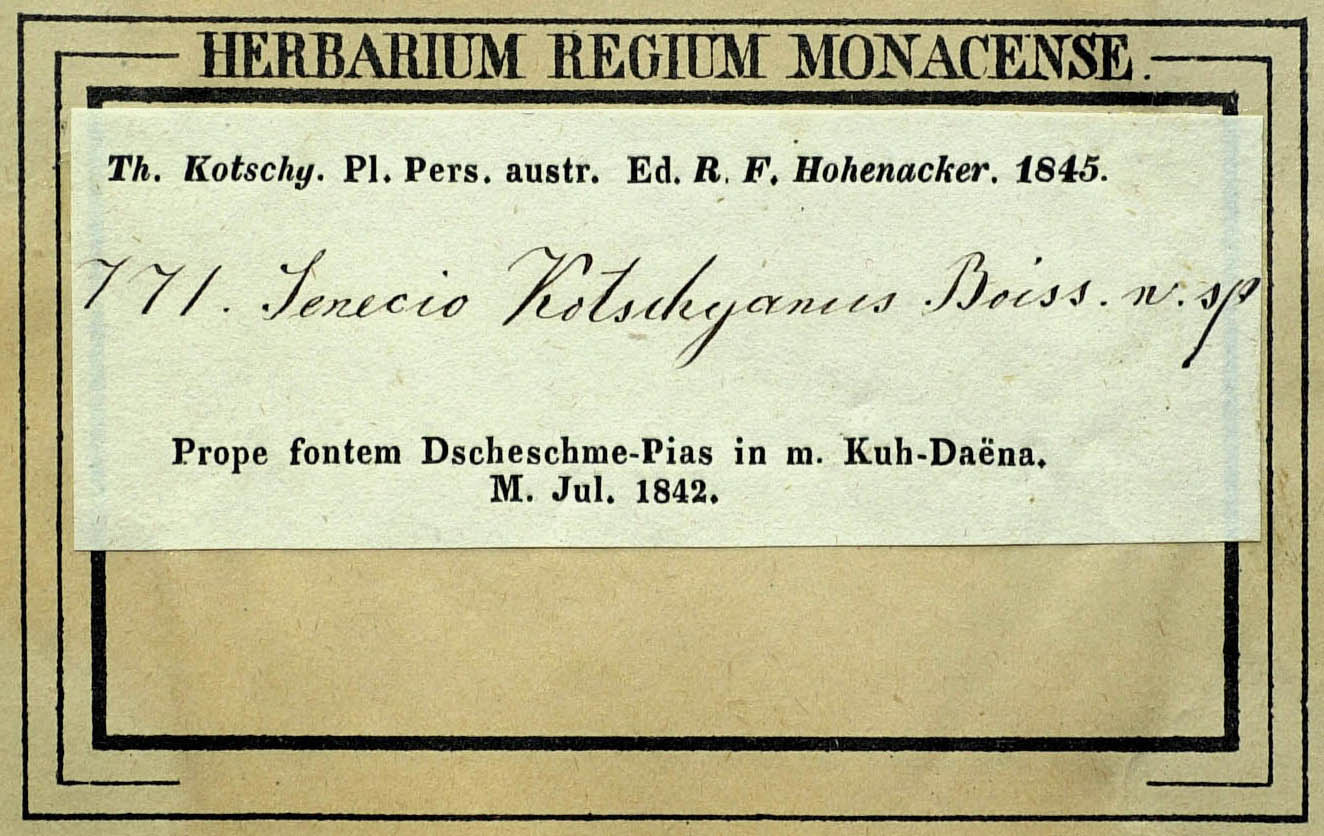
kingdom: Plantae
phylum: Tracheophyta
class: Magnoliopsida
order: Asterales
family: Asteraceae
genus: Senecio
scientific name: Senecio kotschyanus
